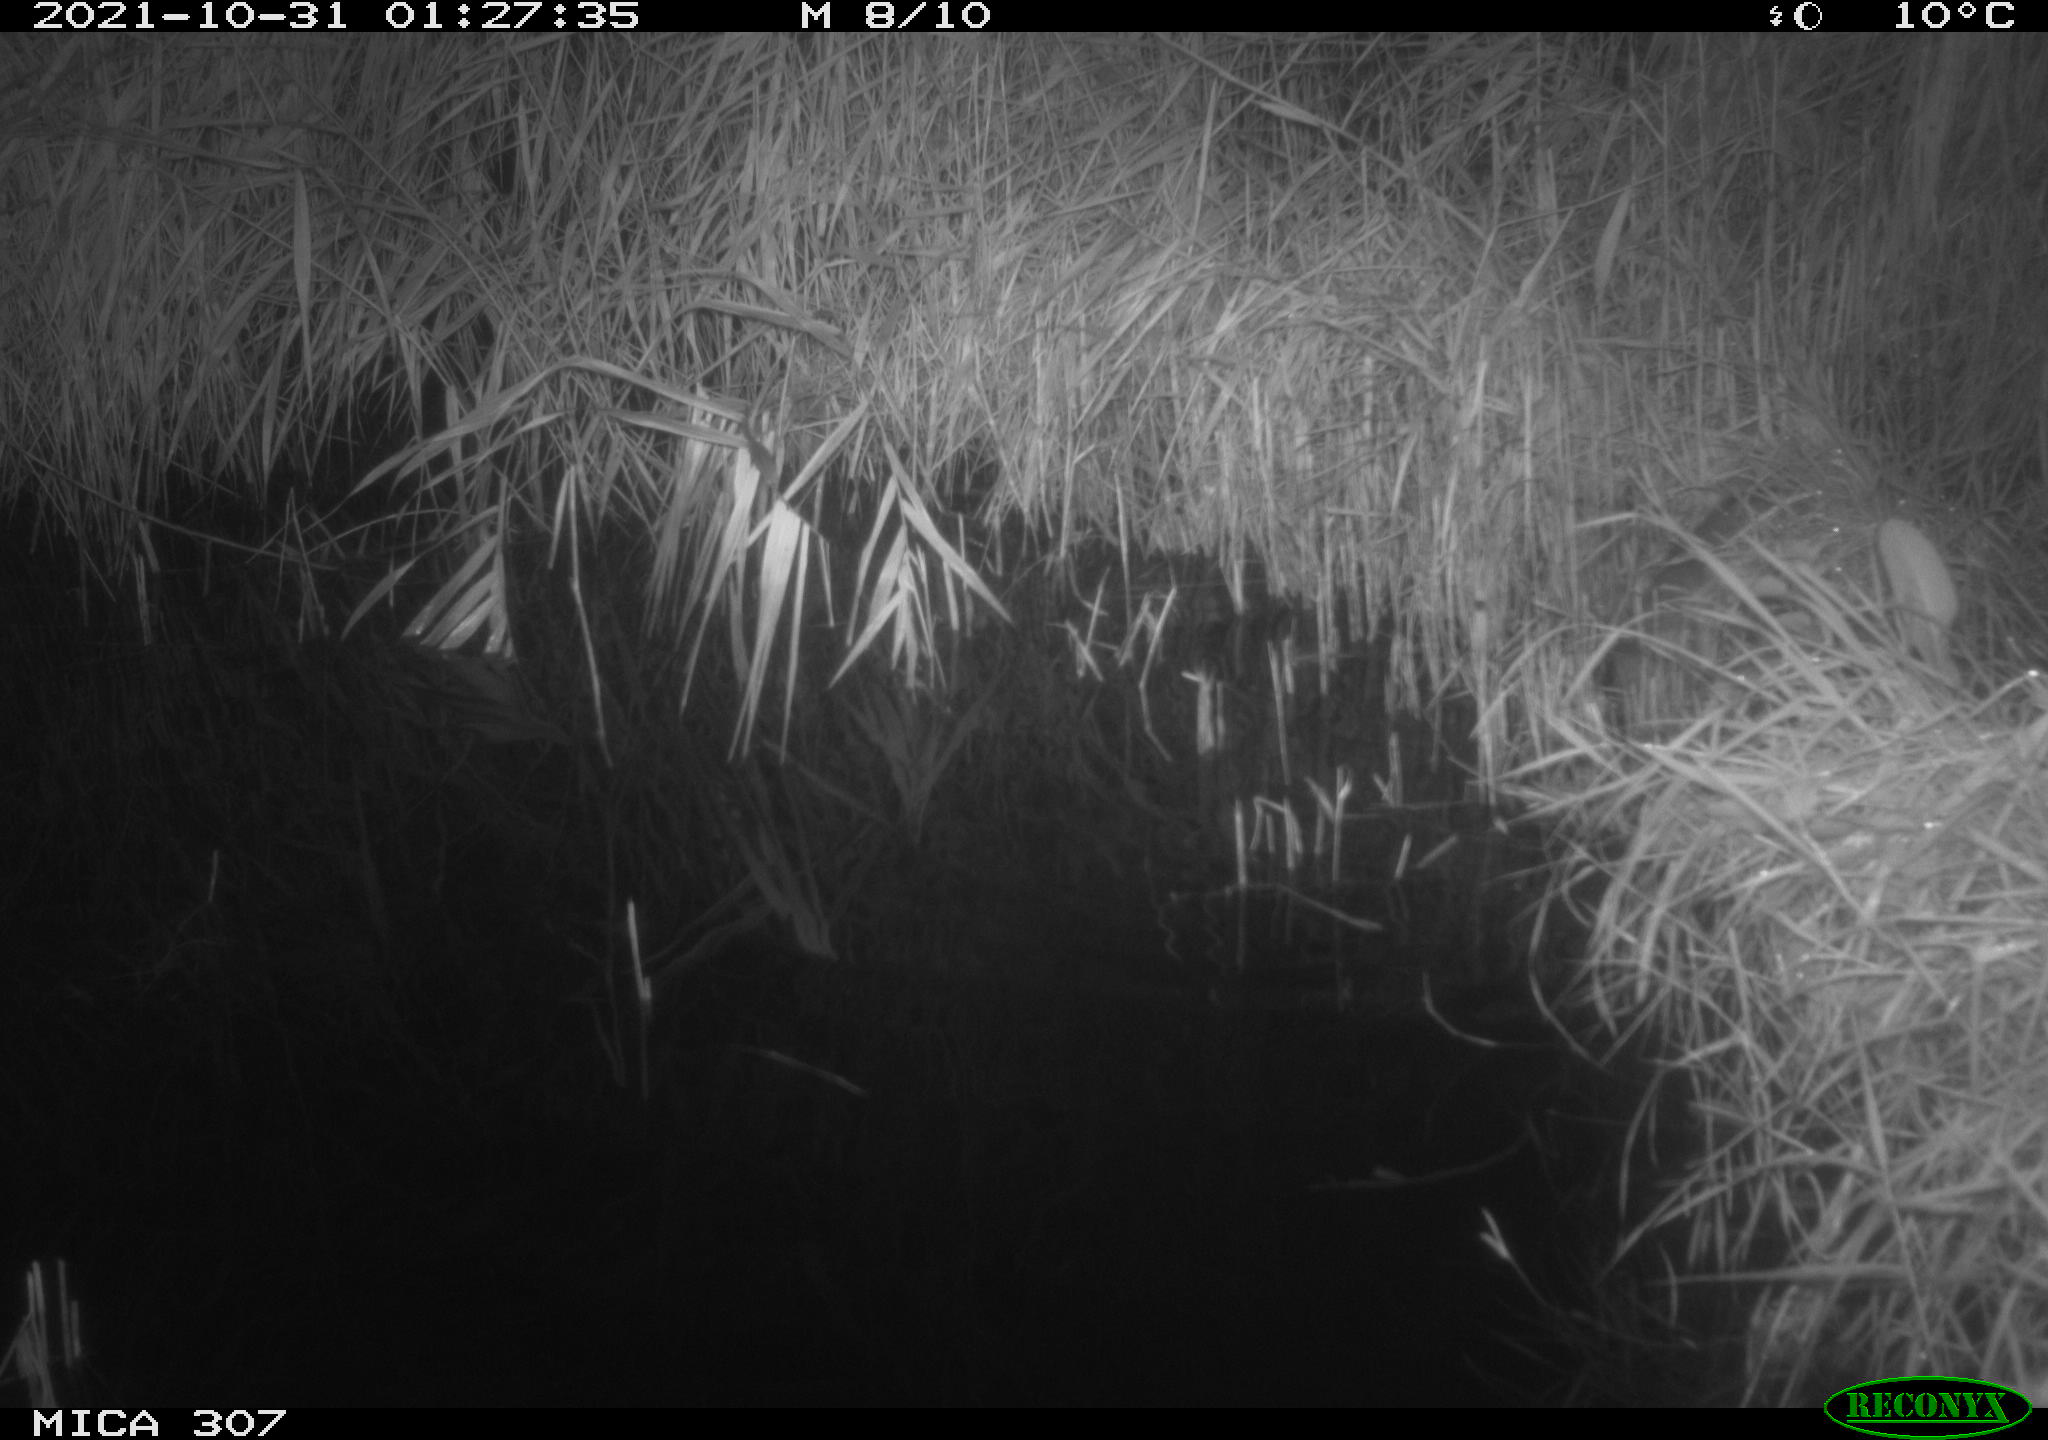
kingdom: Animalia
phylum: Chordata
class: Mammalia
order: Rodentia
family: Muridae
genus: Rattus
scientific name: Rattus norvegicus
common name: Brown rat
